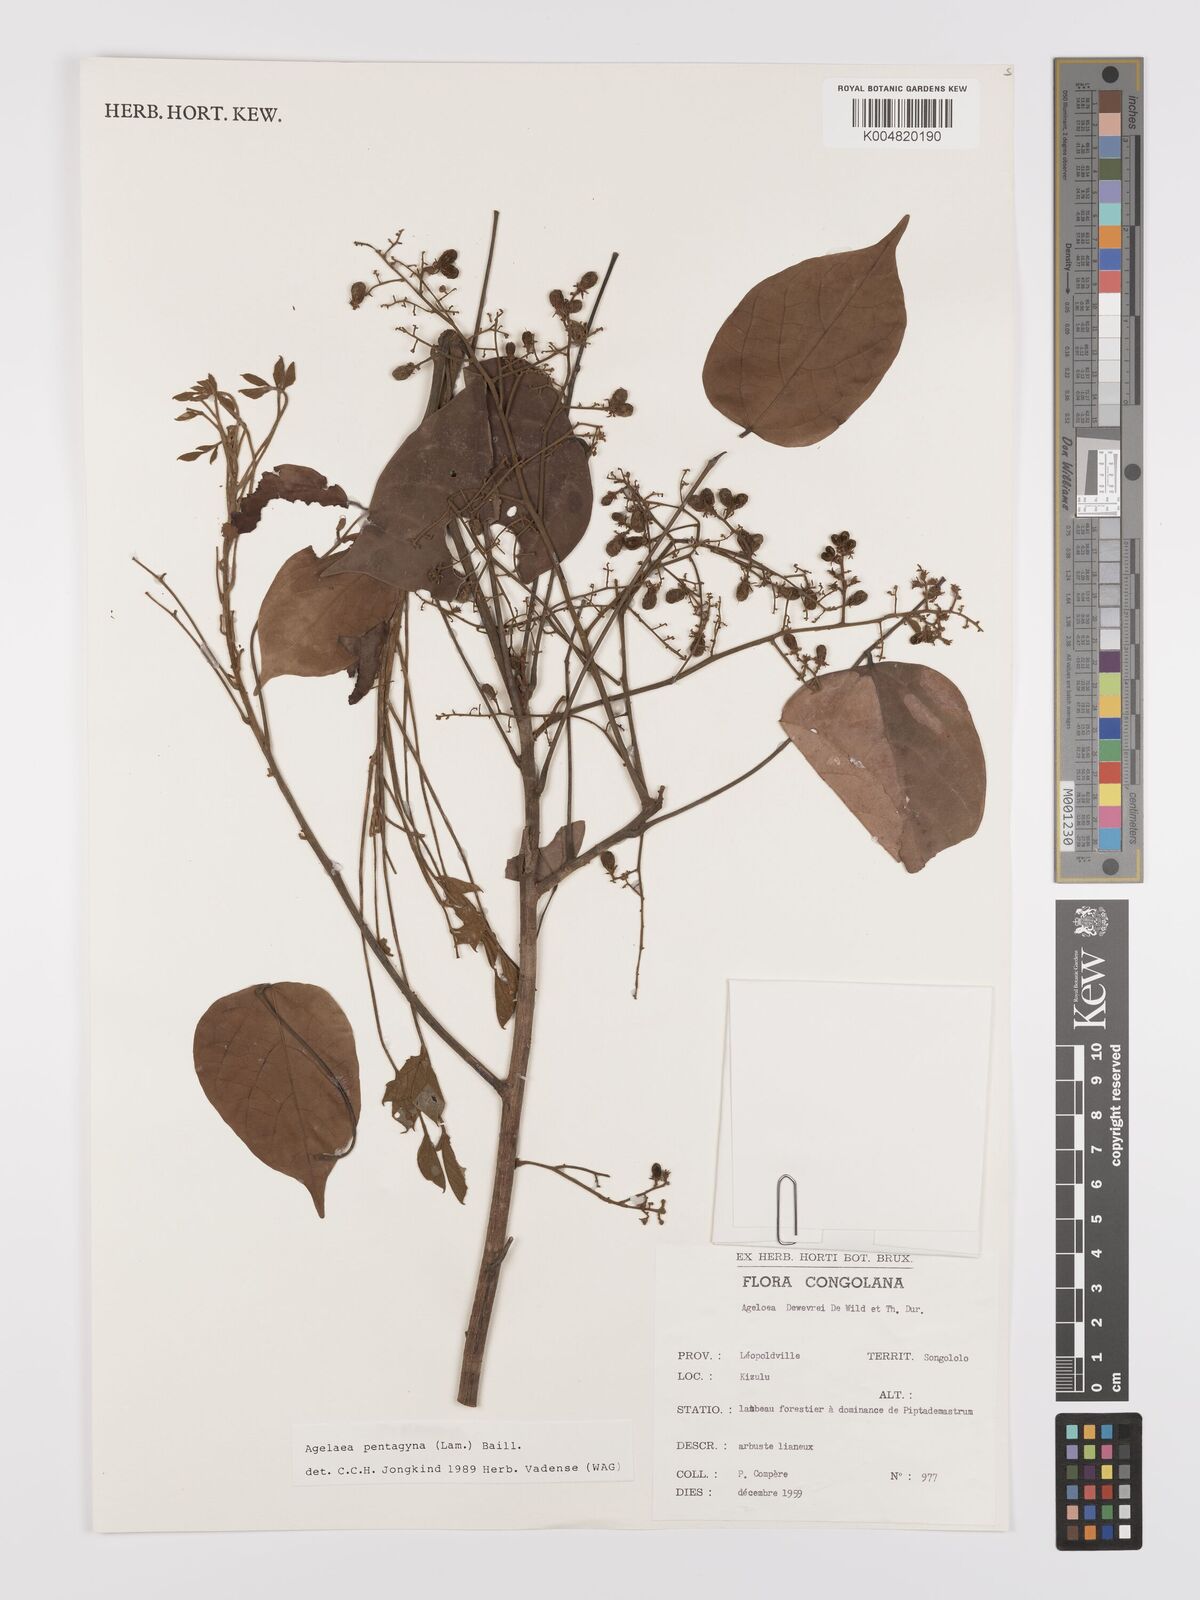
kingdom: Plantae
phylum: Tracheophyta
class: Magnoliopsida
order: Oxalidales
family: Connaraceae
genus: Agelaea
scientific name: Agelaea pentagyna
